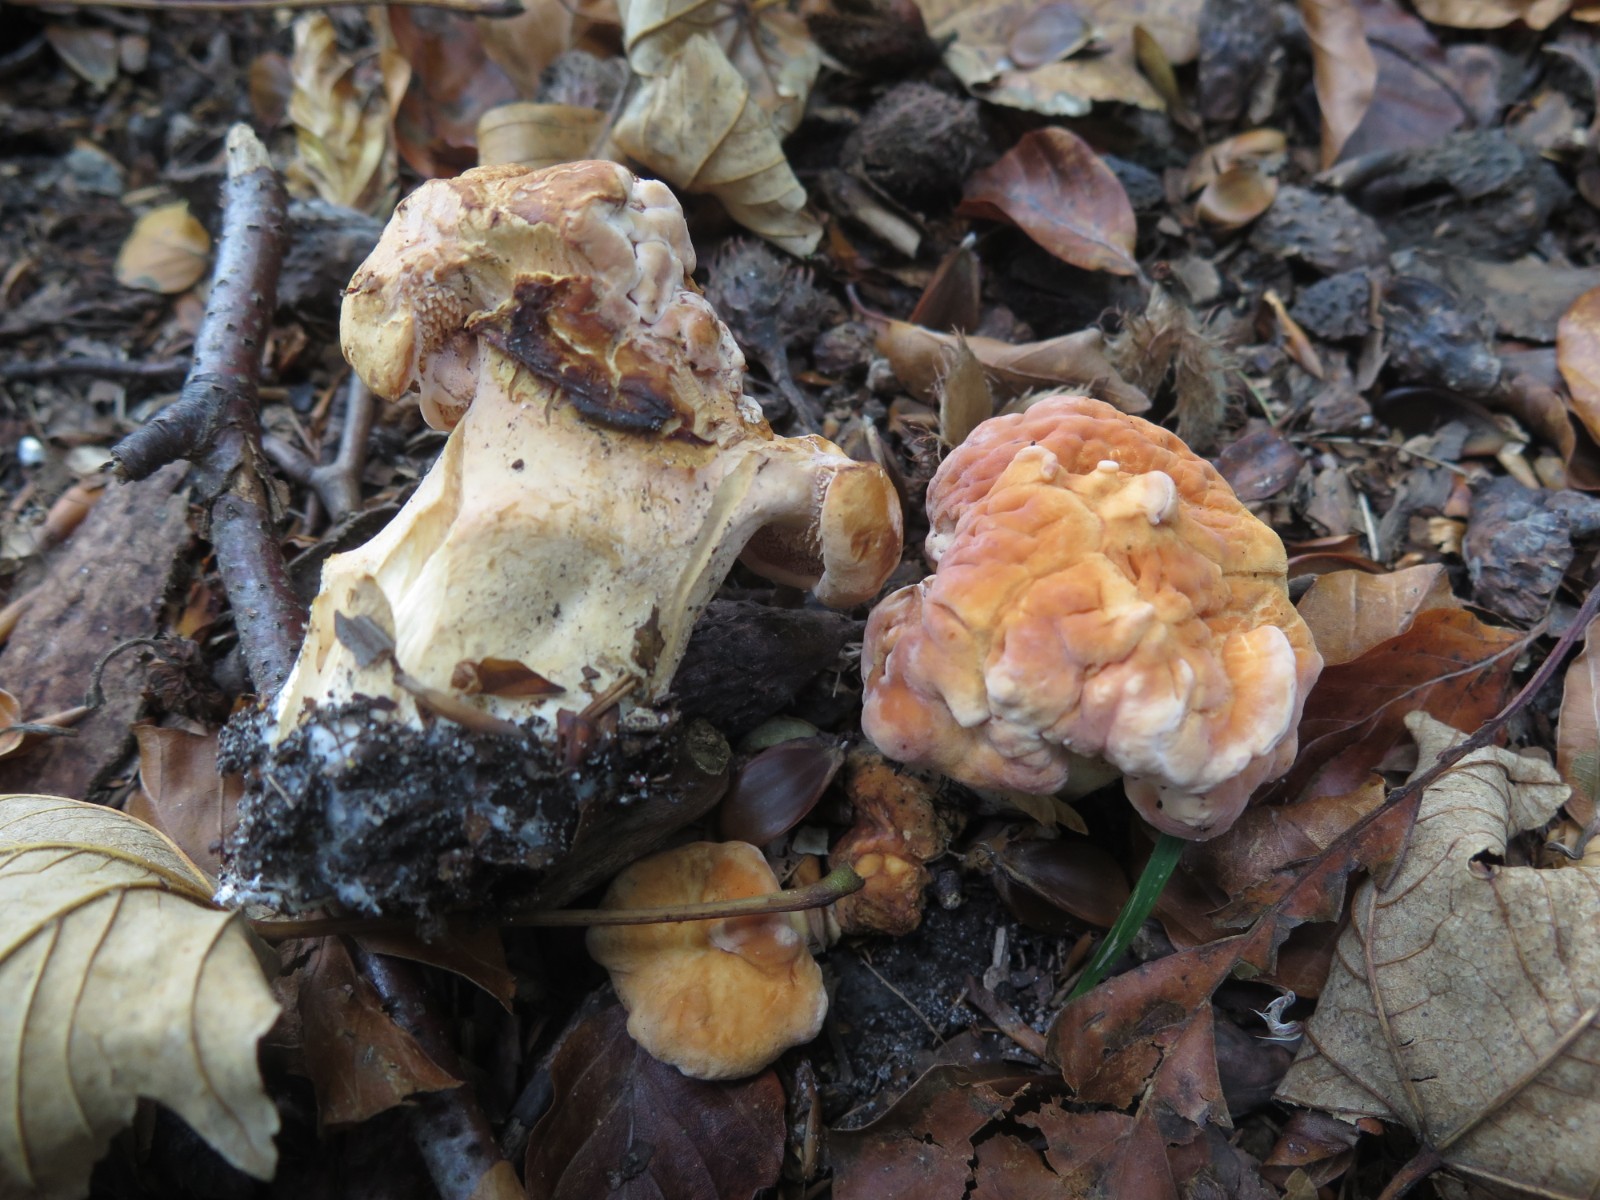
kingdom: Fungi
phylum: Basidiomycota
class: Agaricomycetes
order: Cantharellales
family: Hydnaceae
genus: Hydnum
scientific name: Hydnum rufescens
